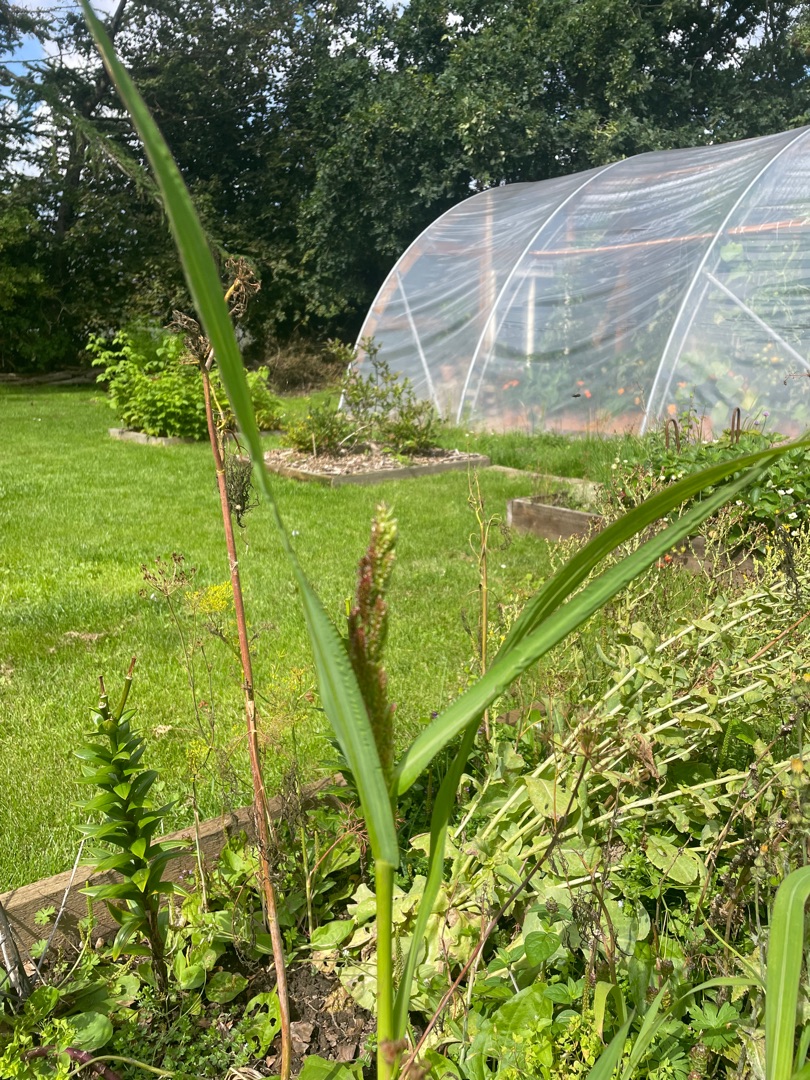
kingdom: Plantae
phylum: Tracheophyta
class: Liliopsida
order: Poales
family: Poaceae
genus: Echinochloa
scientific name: Echinochloa frumentacea
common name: Bleg hanespore
